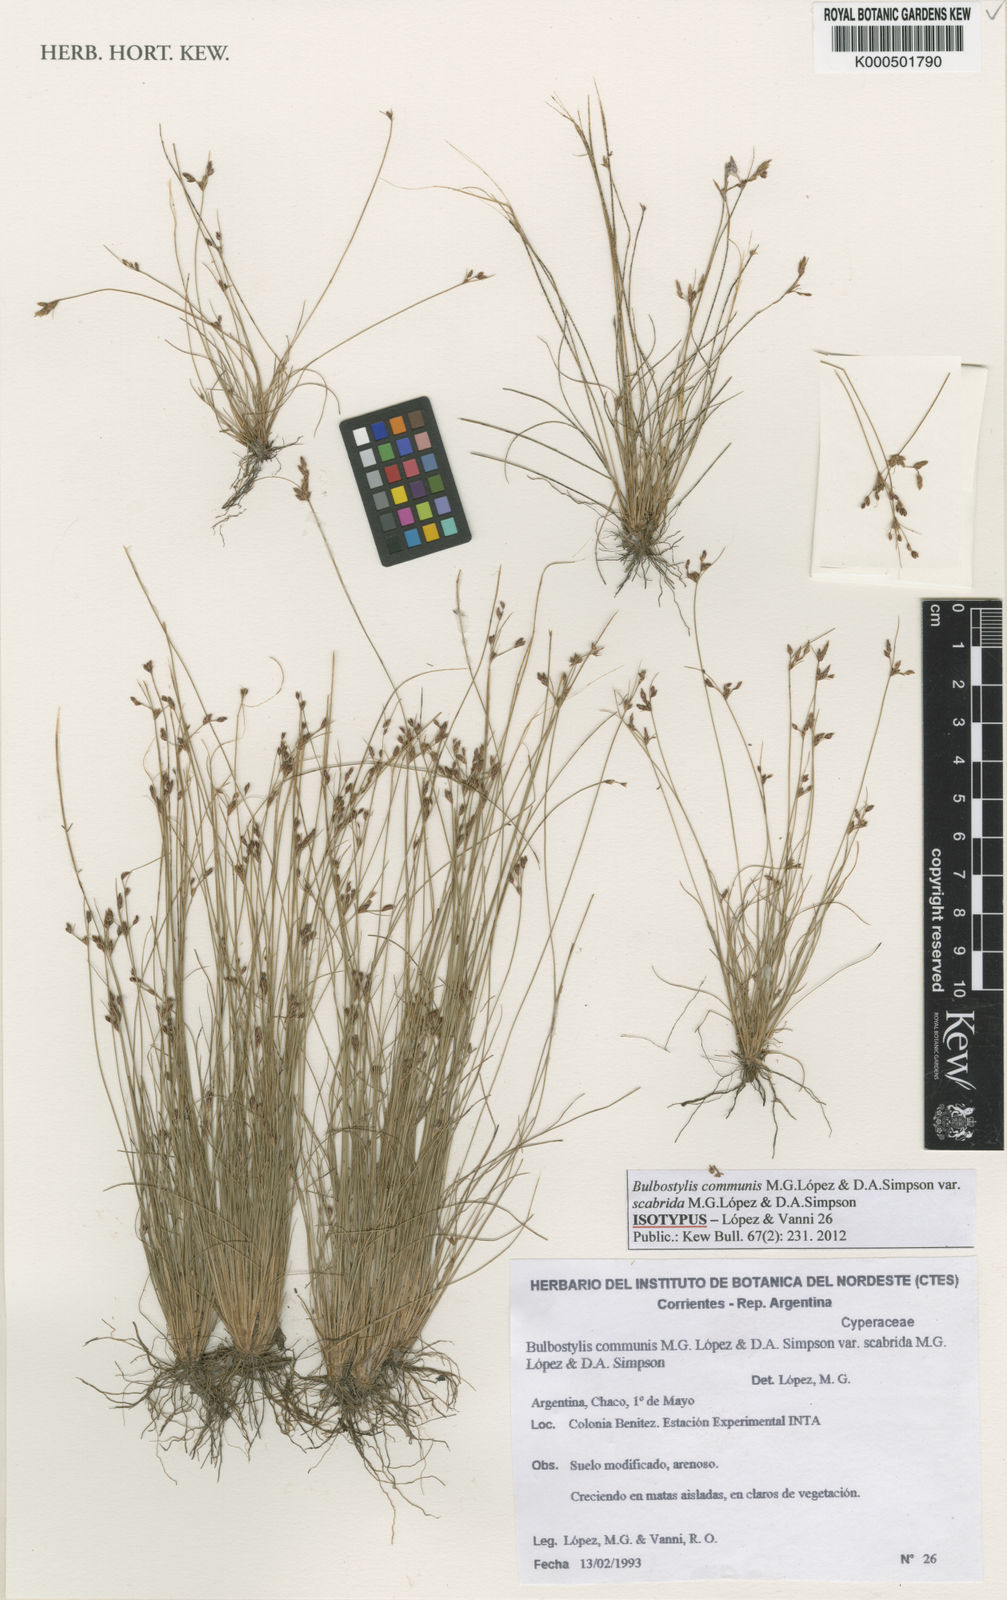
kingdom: Plantae
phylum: Tracheophyta
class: Liliopsida
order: Poales
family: Cyperaceae
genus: Bulbostylis
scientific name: Bulbostylis
